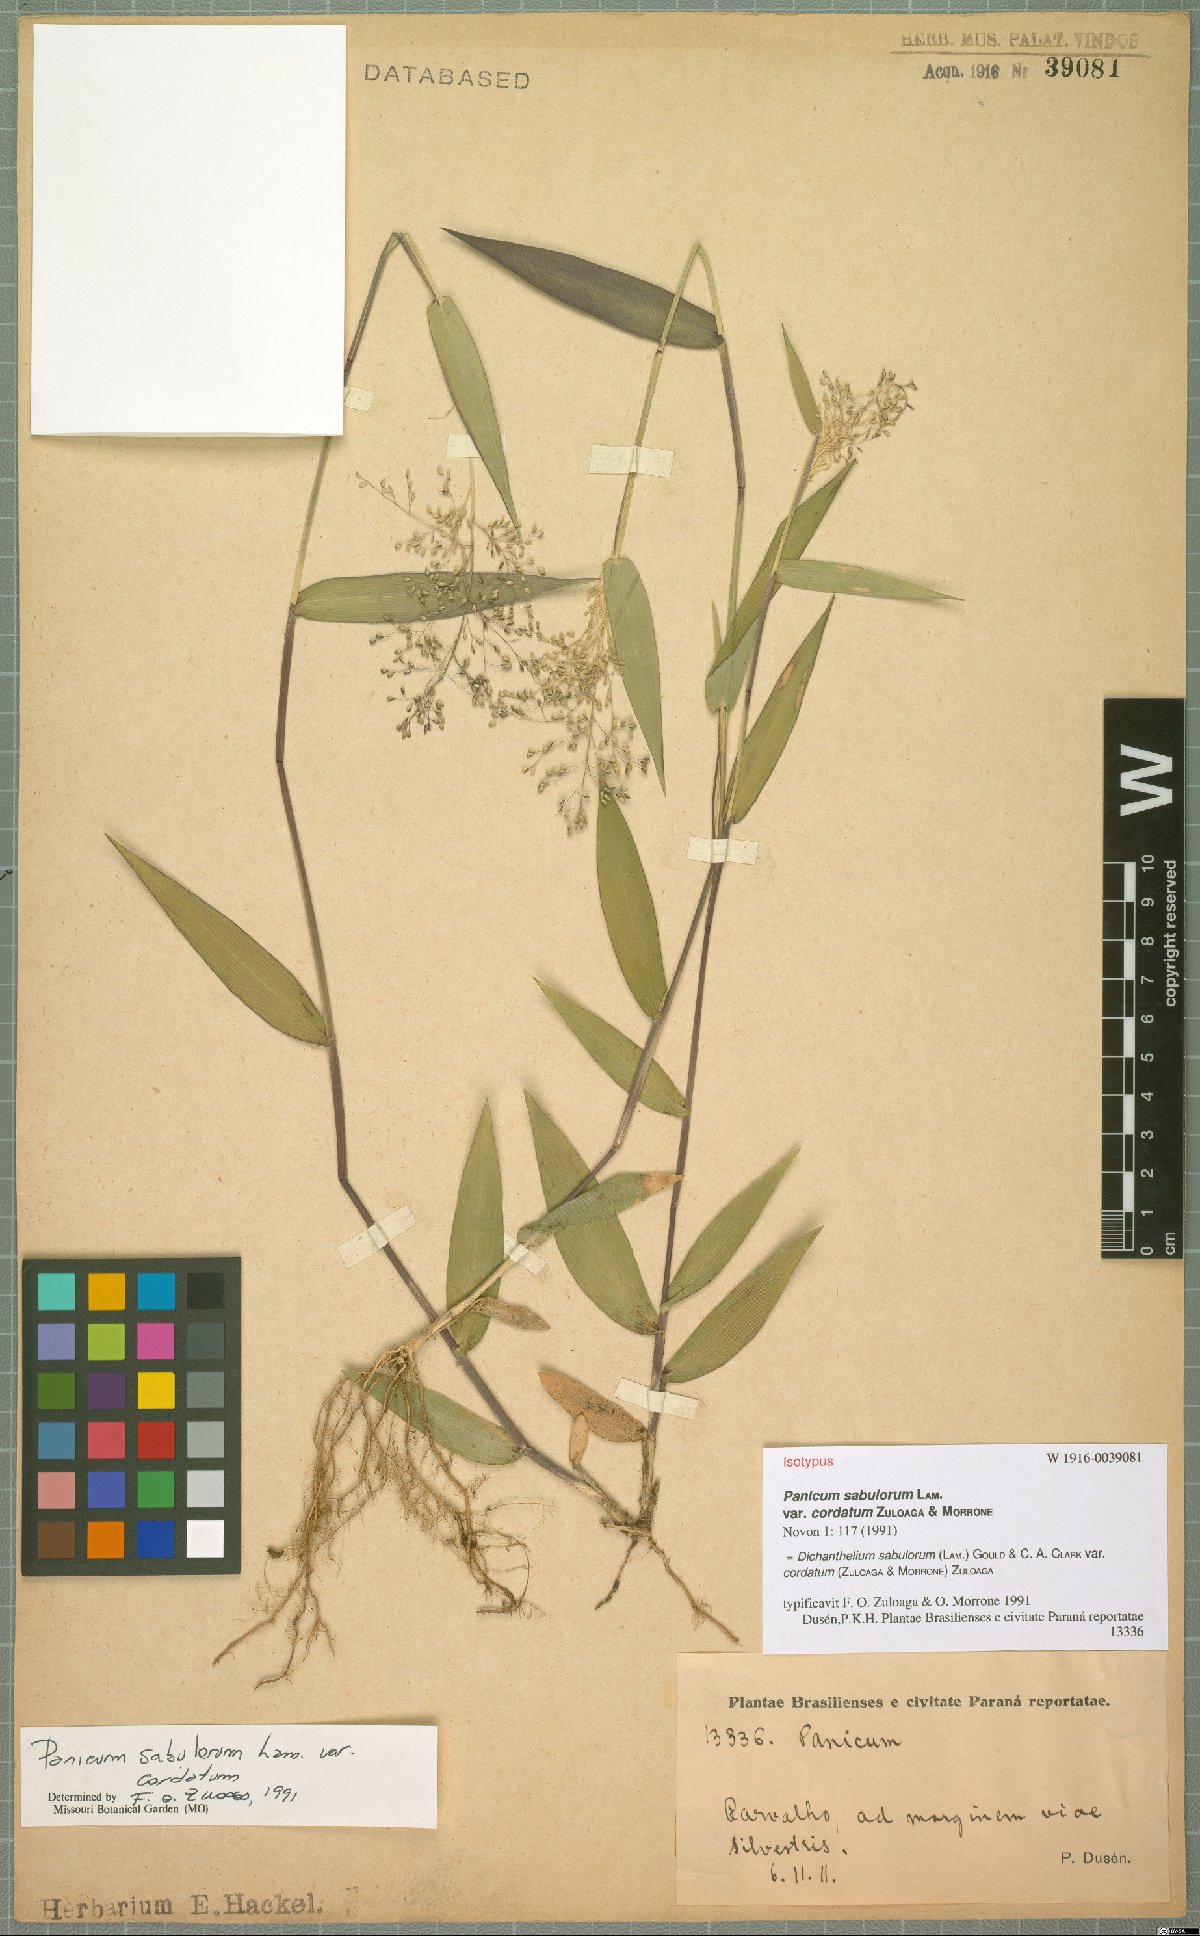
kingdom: Plantae
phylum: Tracheophyta
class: Liliopsida
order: Poales
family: Poaceae
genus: Dichanthelium
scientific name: Dichanthelium sabulorum
